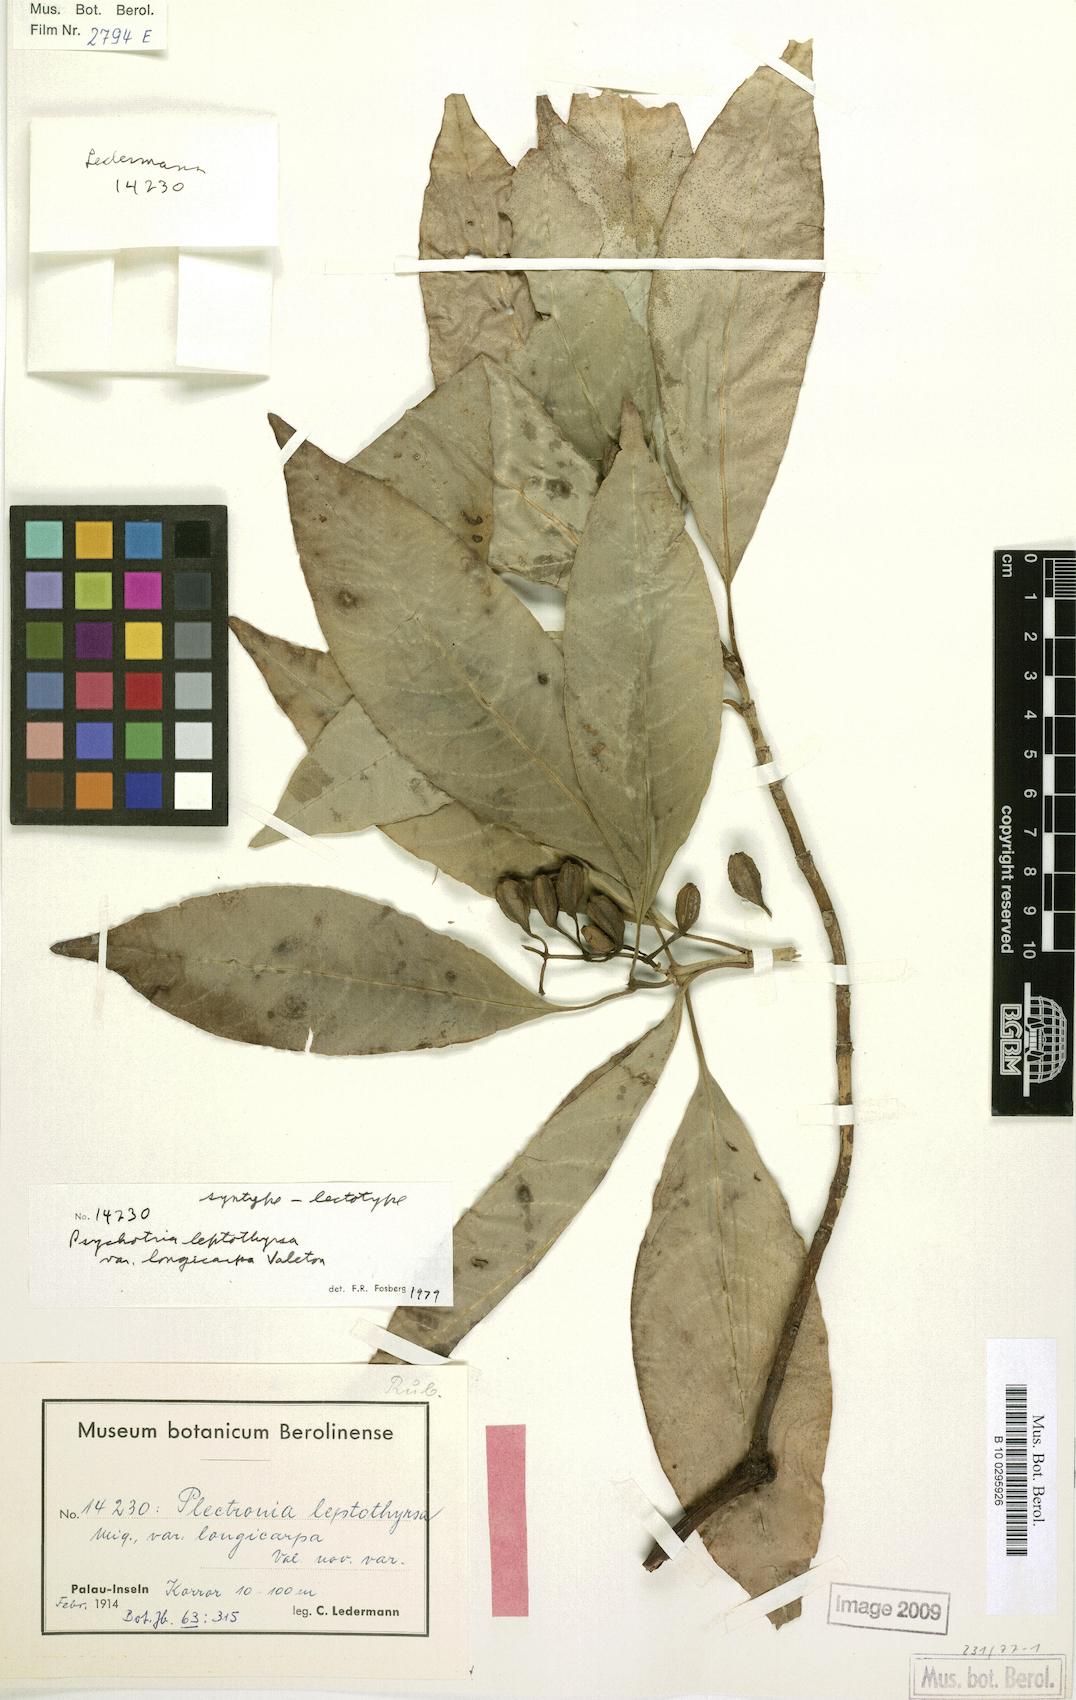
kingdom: Plantae
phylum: Tracheophyta
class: Magnoliopsida
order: Gentianales
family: Rubiaceae
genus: Eumachia
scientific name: Eumachia leptothyrsa
